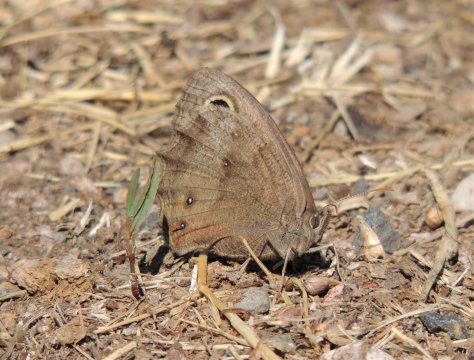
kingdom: Animalia
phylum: Arthropoda
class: Insecta
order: Lepidoptera
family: Nymphalidae
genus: Cercyonis
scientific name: Cercyonis pegala
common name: Common Wood-Nymph
